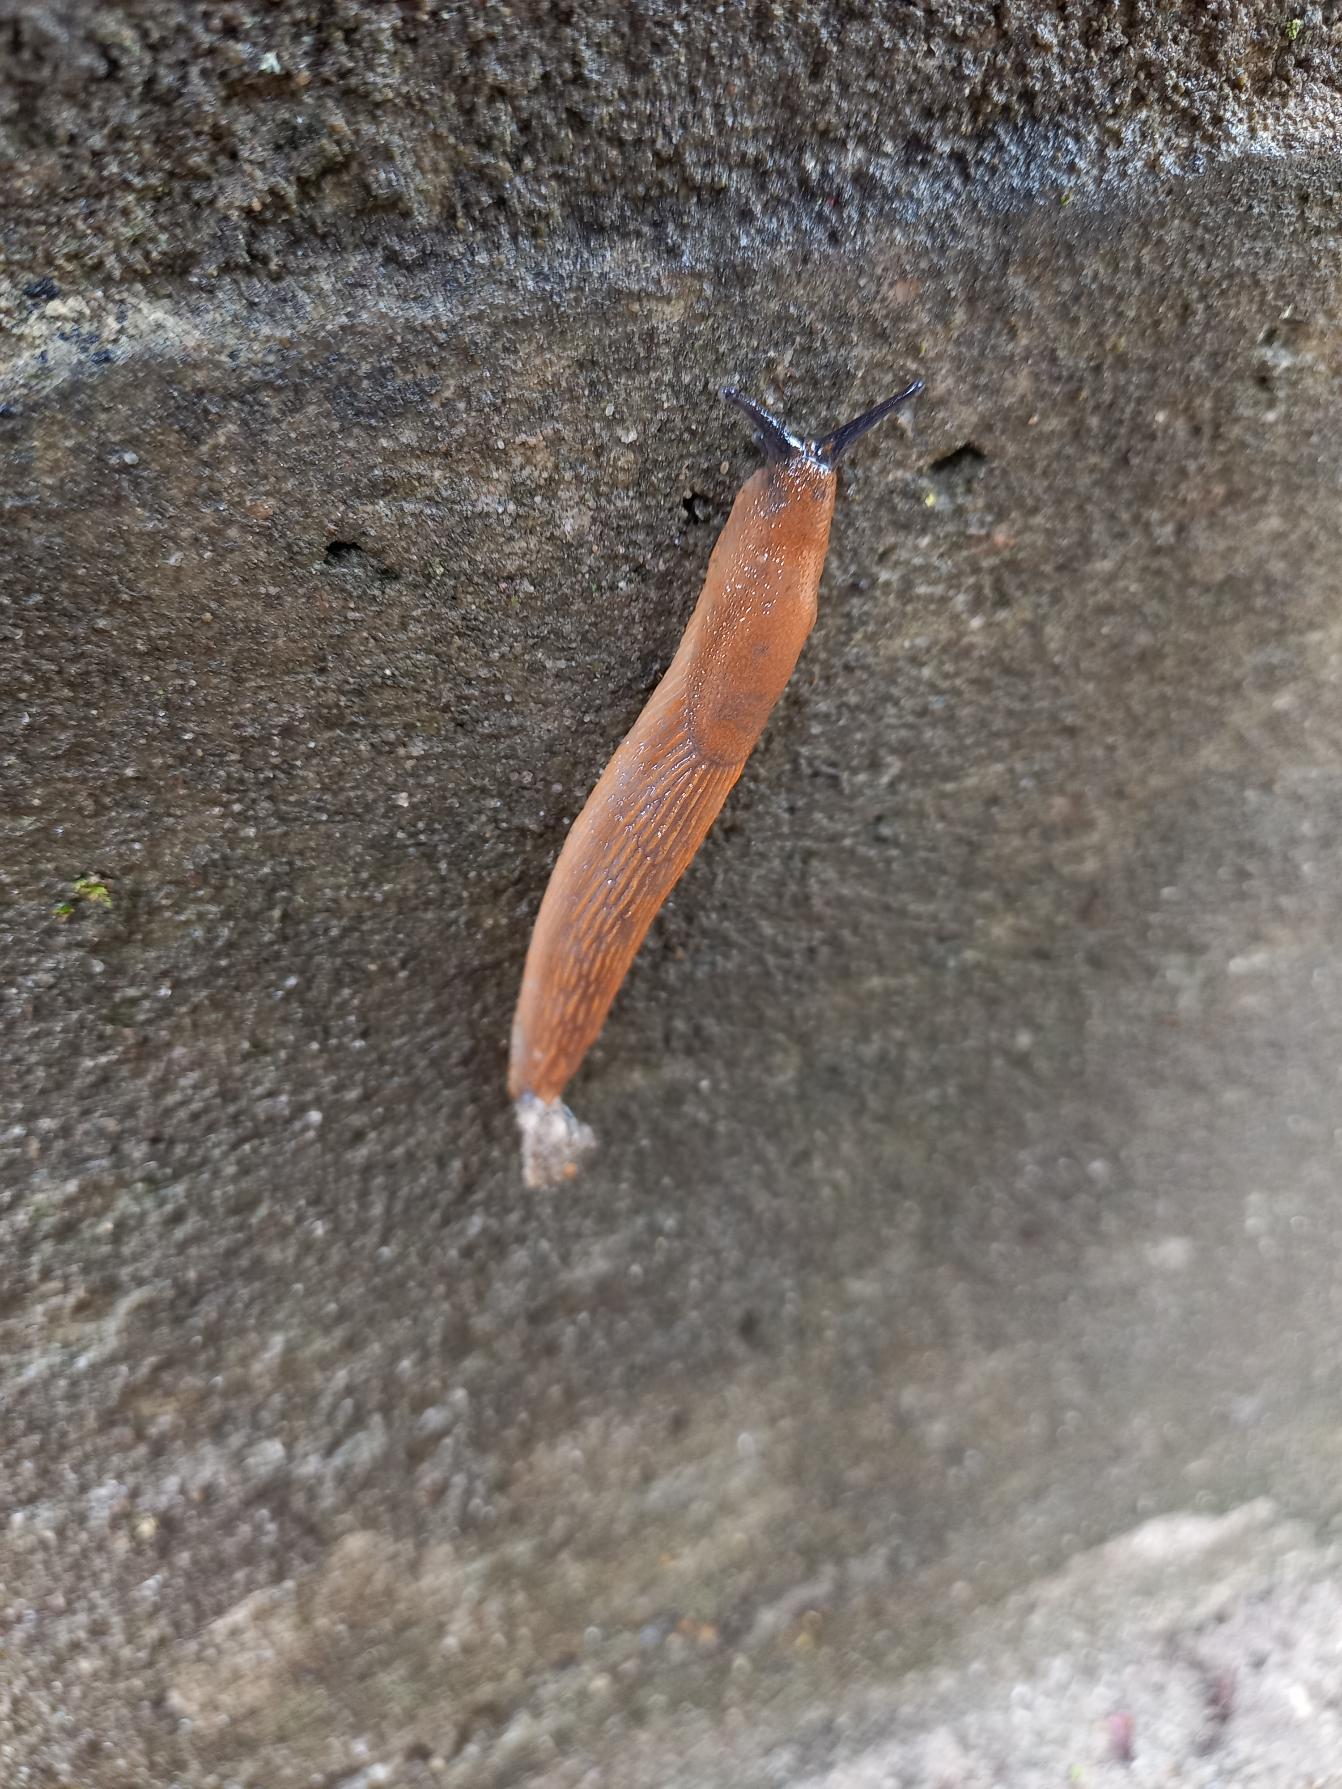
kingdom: Animalia
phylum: Mollusca
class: Gastropoda
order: Stylommatophora
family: Arionidae
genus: Arion
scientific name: Arion vulgaris
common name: Iberisk skovsnegl
